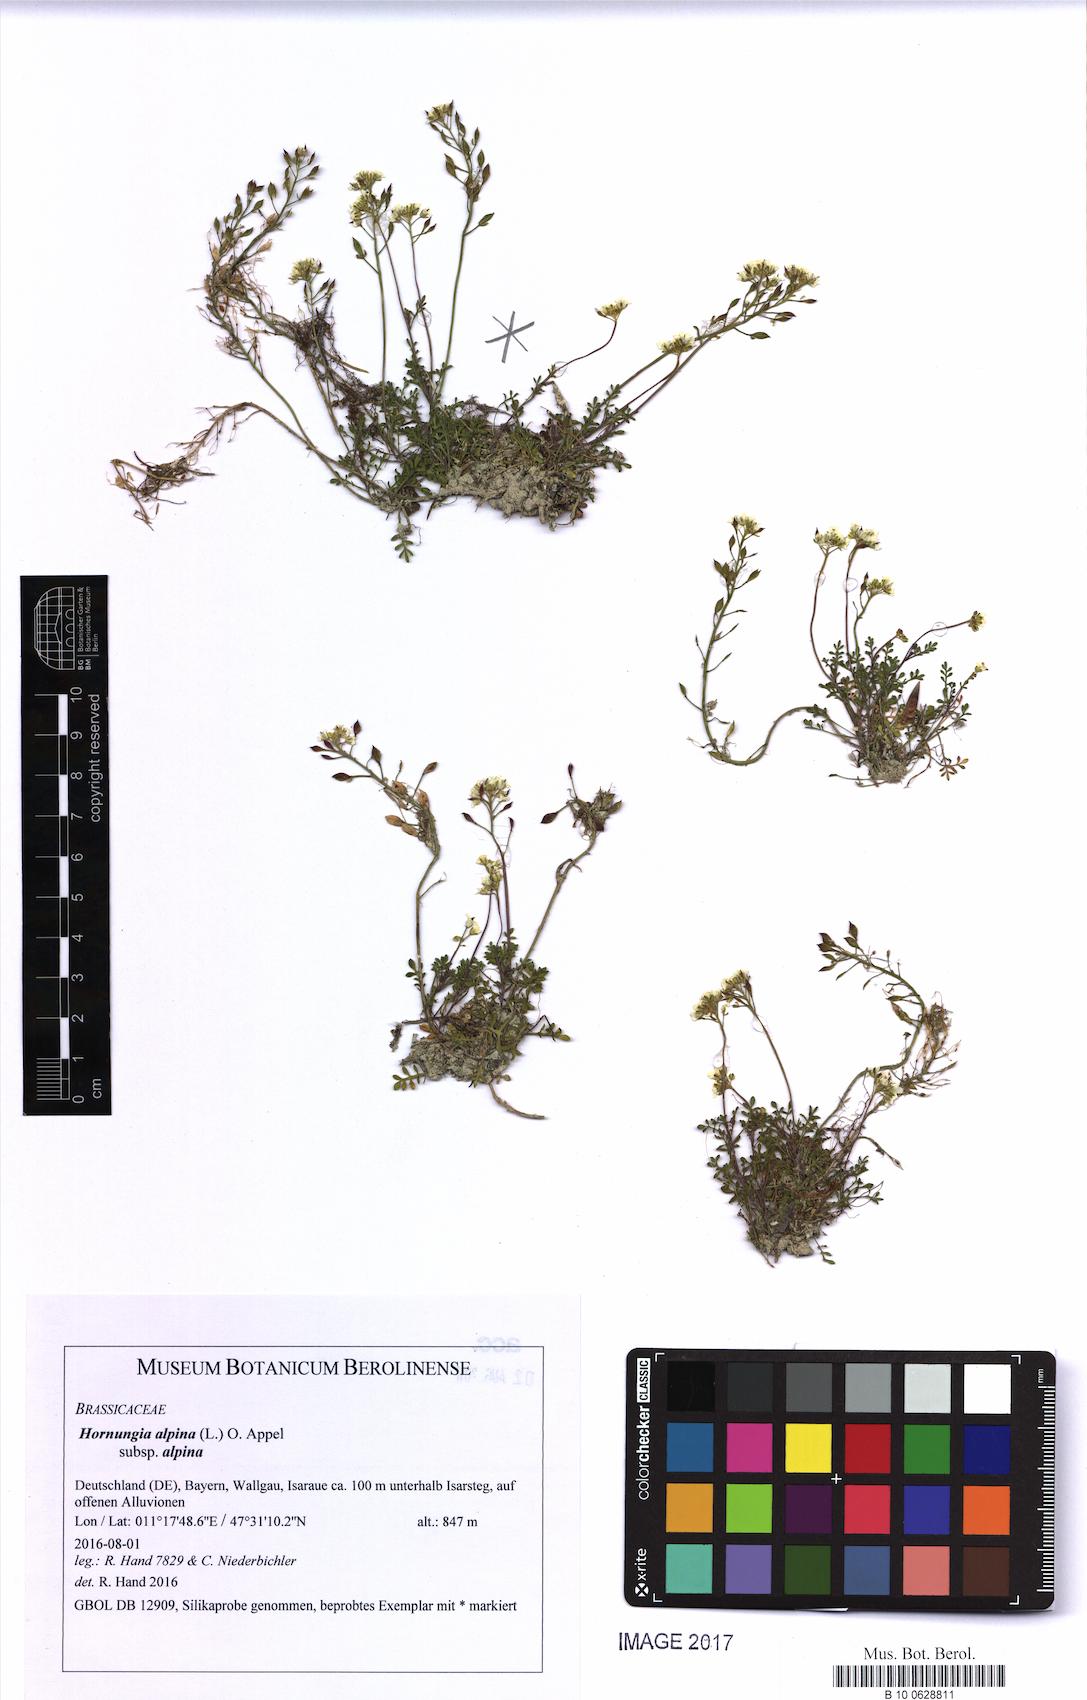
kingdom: Plantae
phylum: Tracheophyta
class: Magnoliopsida
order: Brassicales
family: Brassicaceae
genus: Hornungia
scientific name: Hornungia alpina
